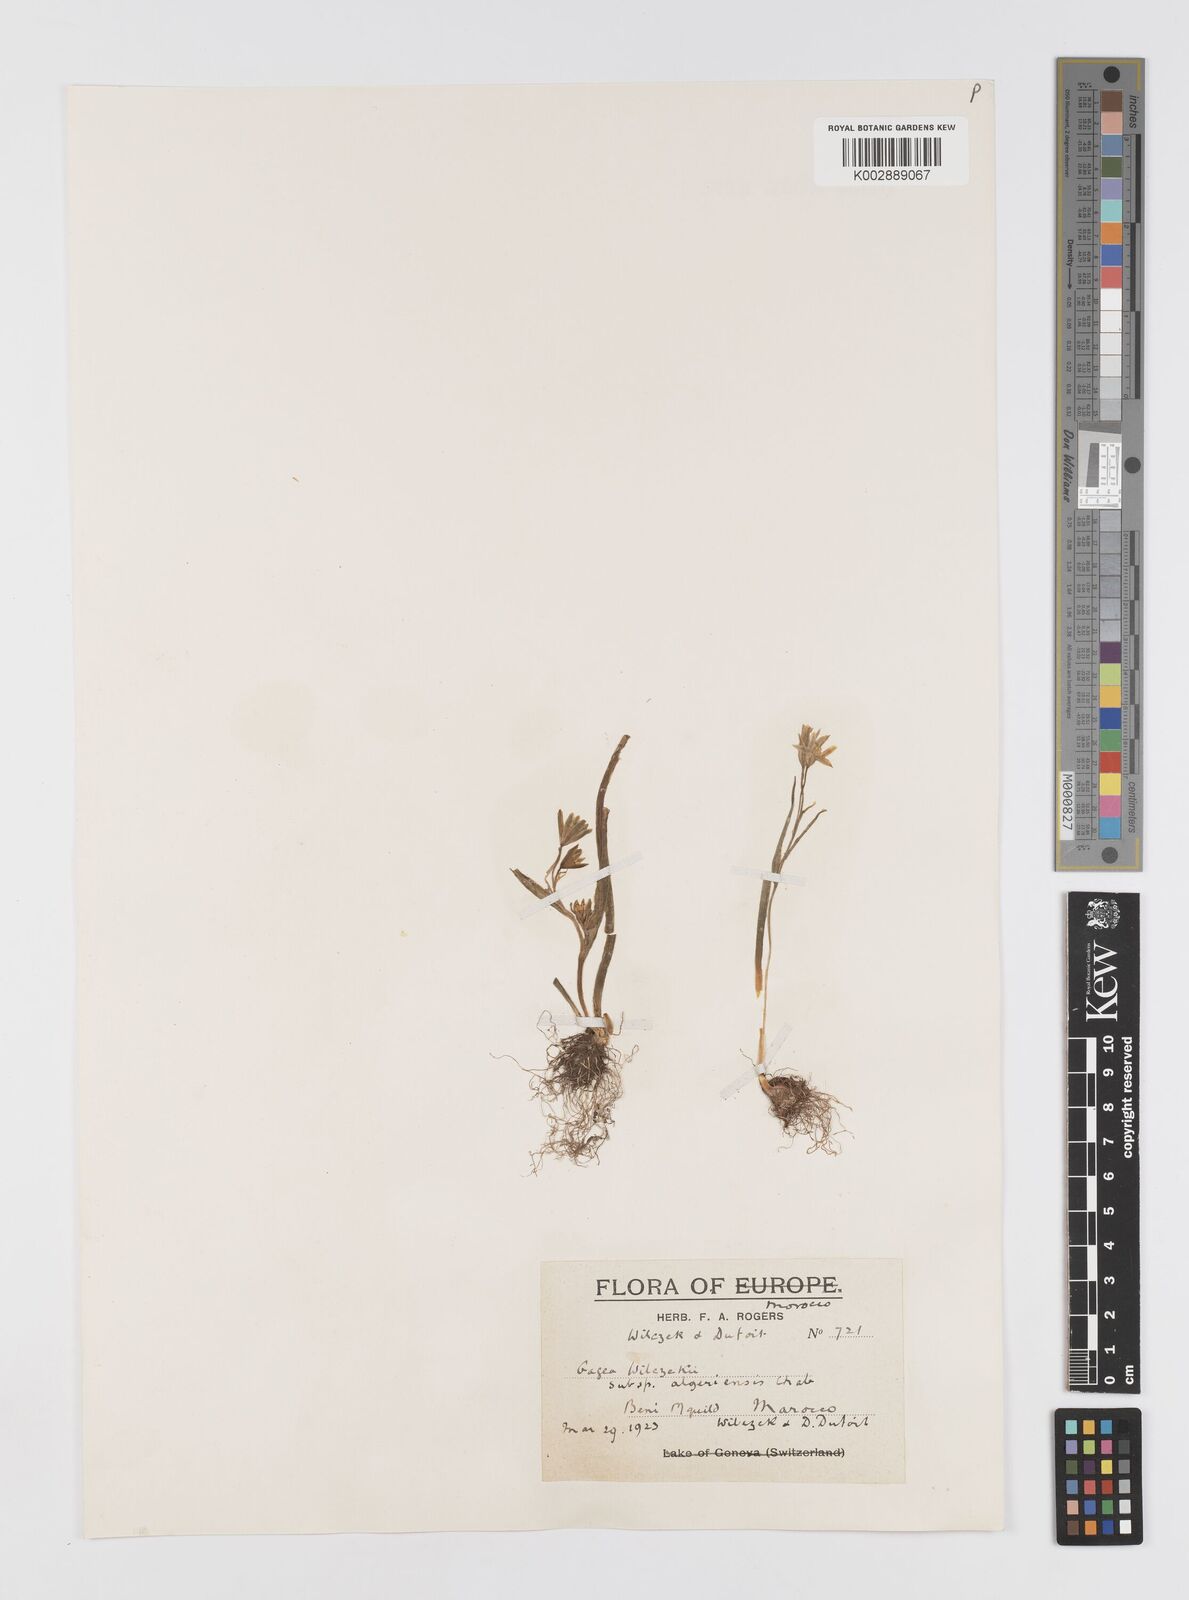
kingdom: Plantae
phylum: Tracheophyta
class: Liliopsida
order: Liliales
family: Liliaceae
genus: Gagea
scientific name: Gagea fibrosa
